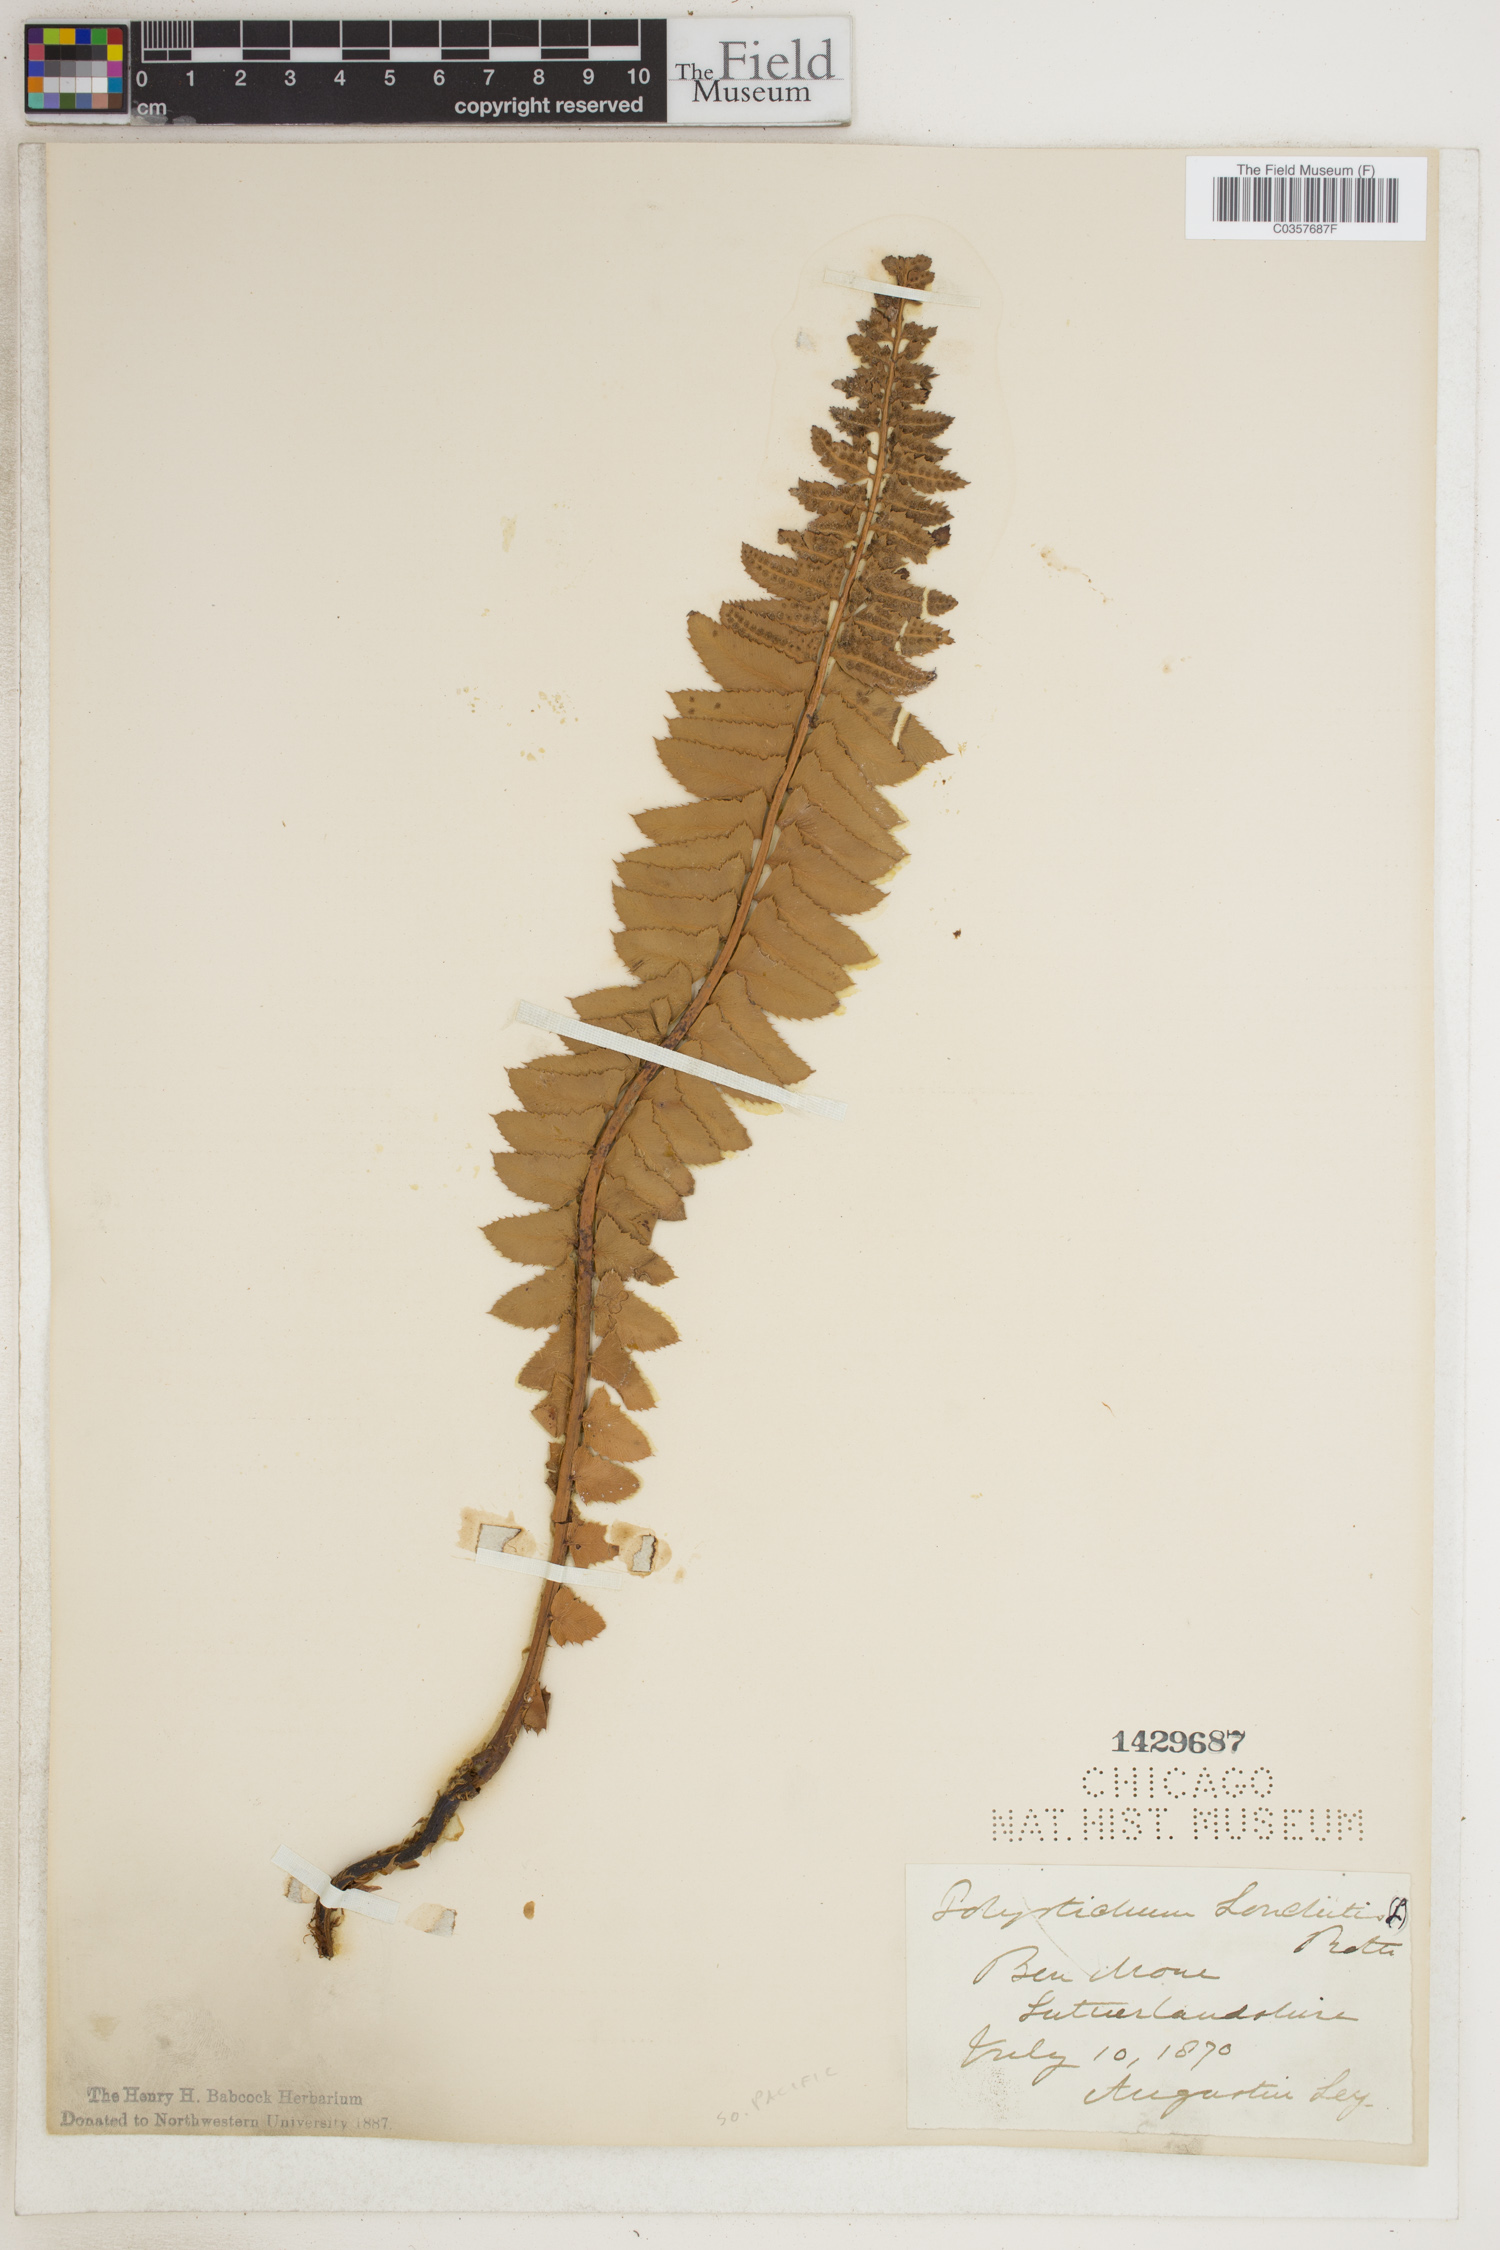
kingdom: Plantae
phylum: Tracheophyta
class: Polypodiopsida
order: Polypodiales
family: Dryopteridaceae
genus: Polystichum
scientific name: Polystichum lonchitis
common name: Holly fern
